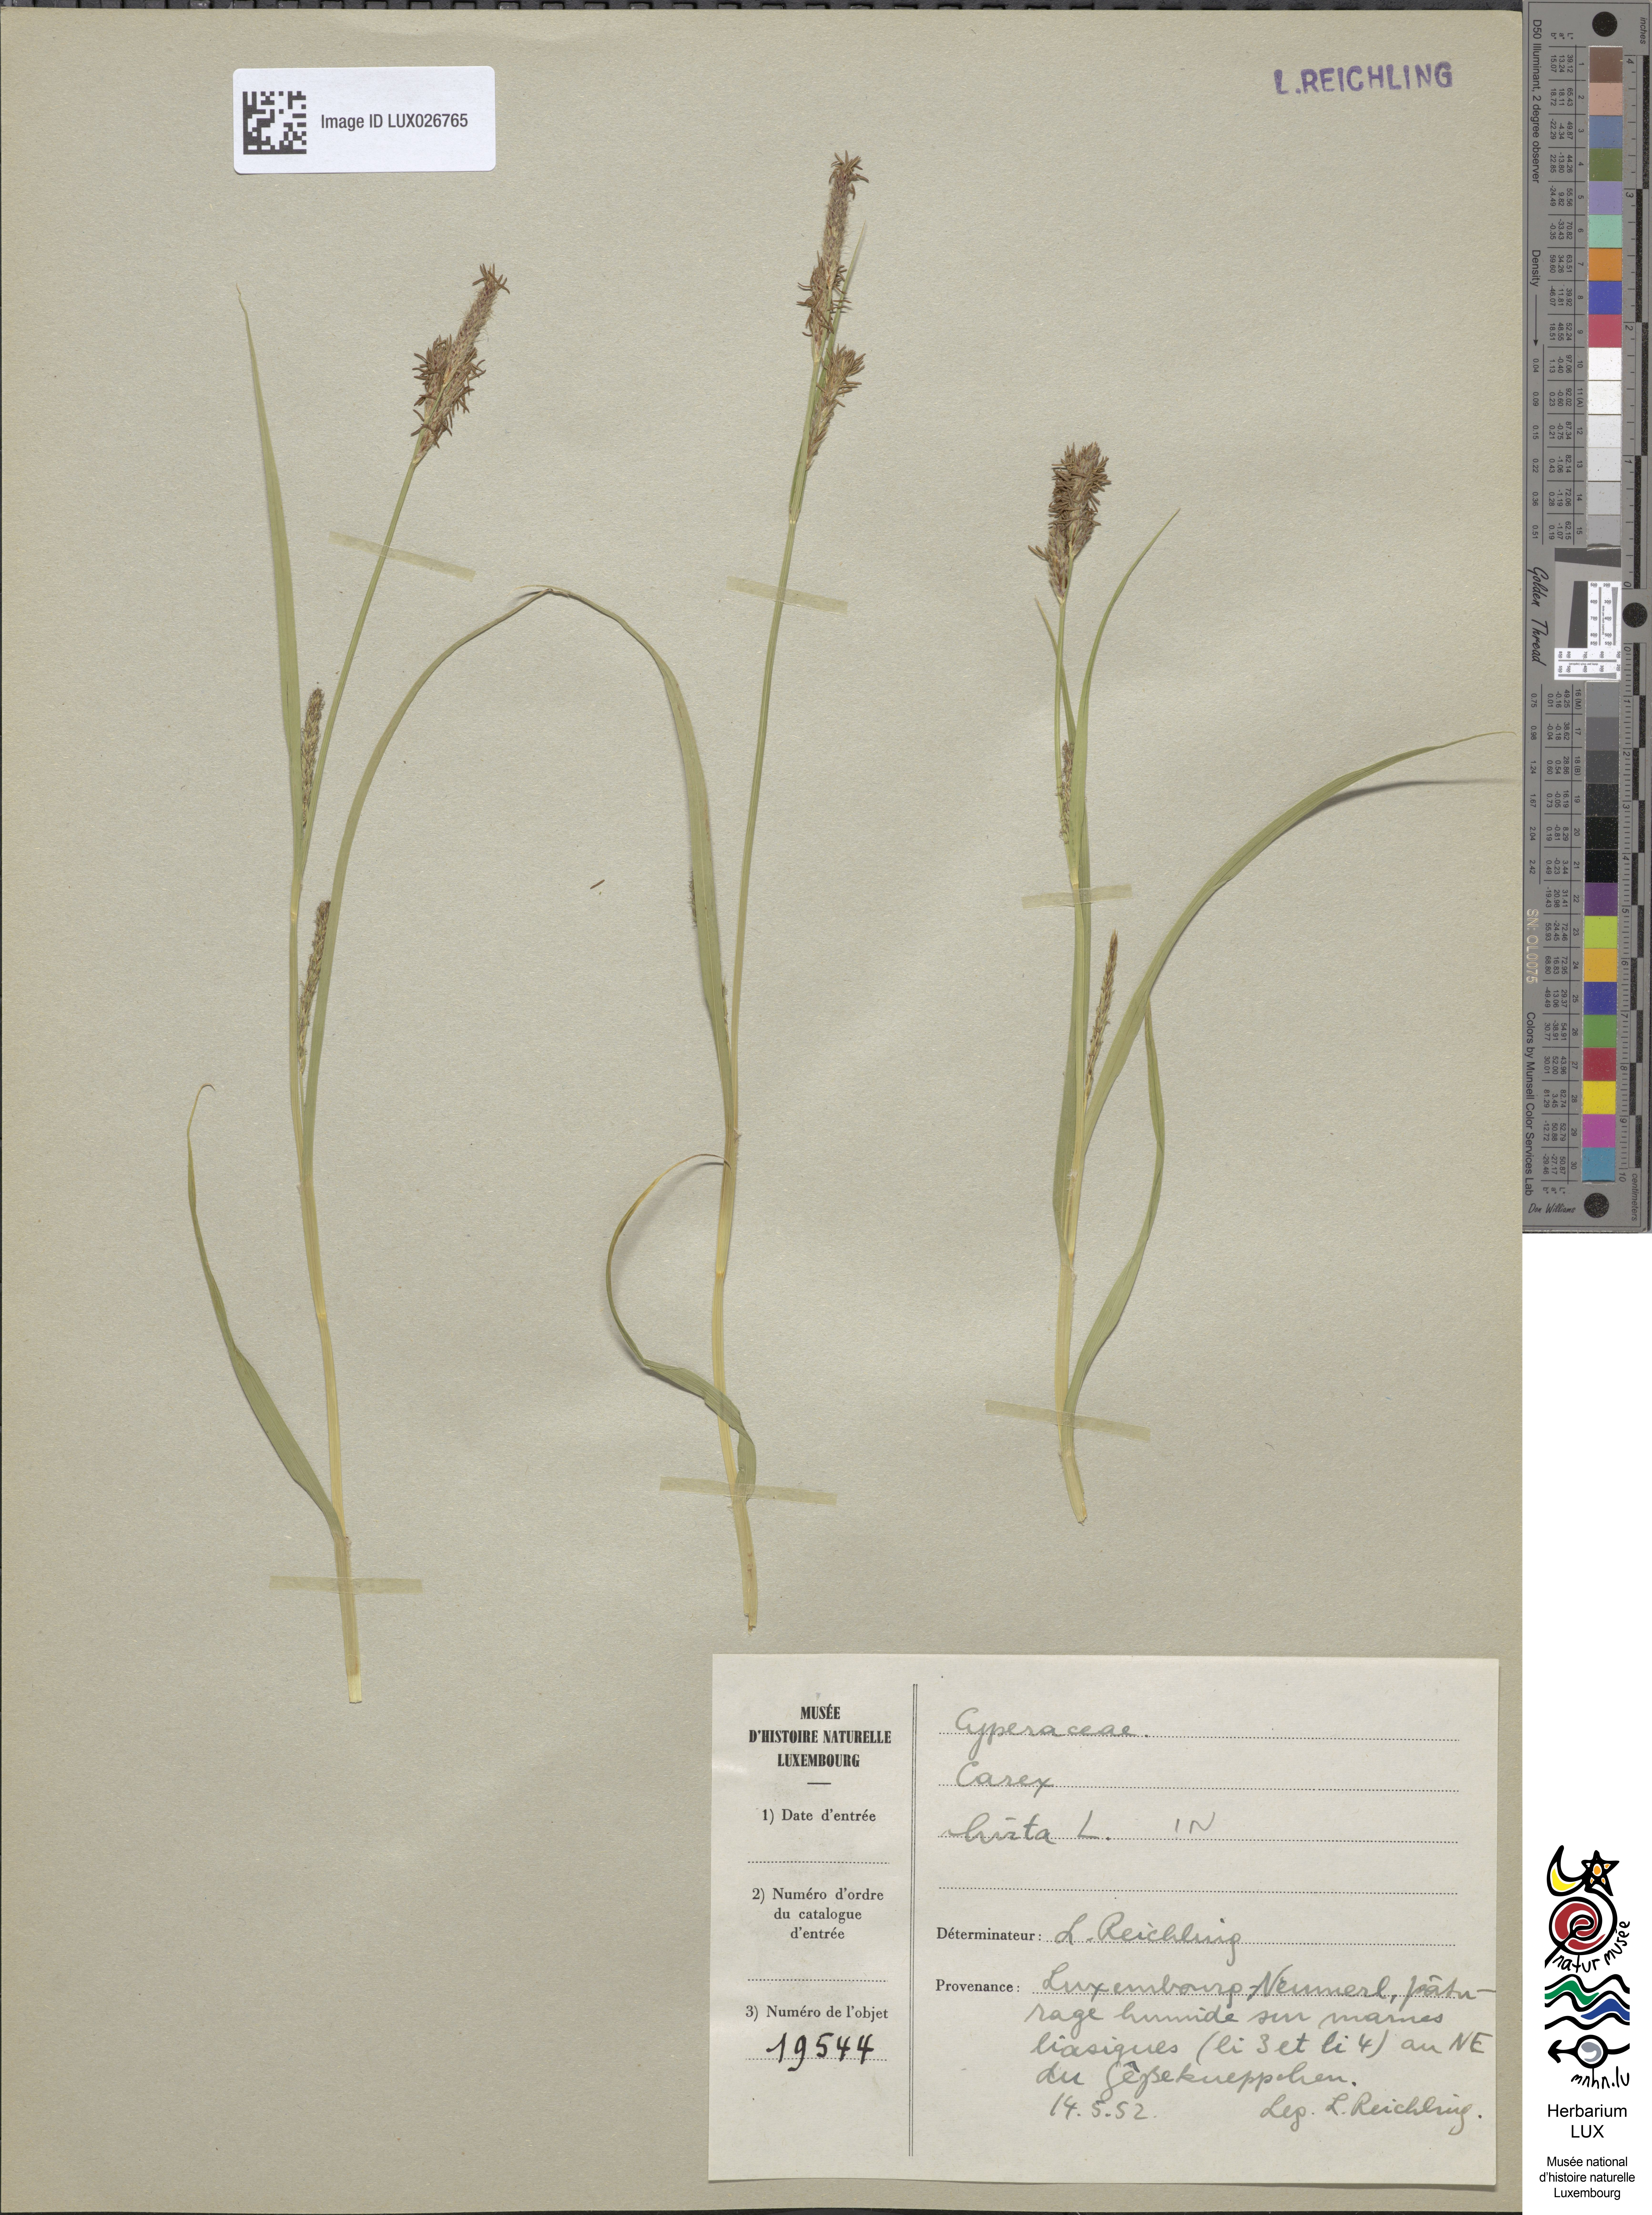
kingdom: Plantae
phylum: Tracheophyta
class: Liliopsida
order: Poales
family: Cyperaceae
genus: Carex
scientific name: Carex hirta
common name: Hairy sedge
